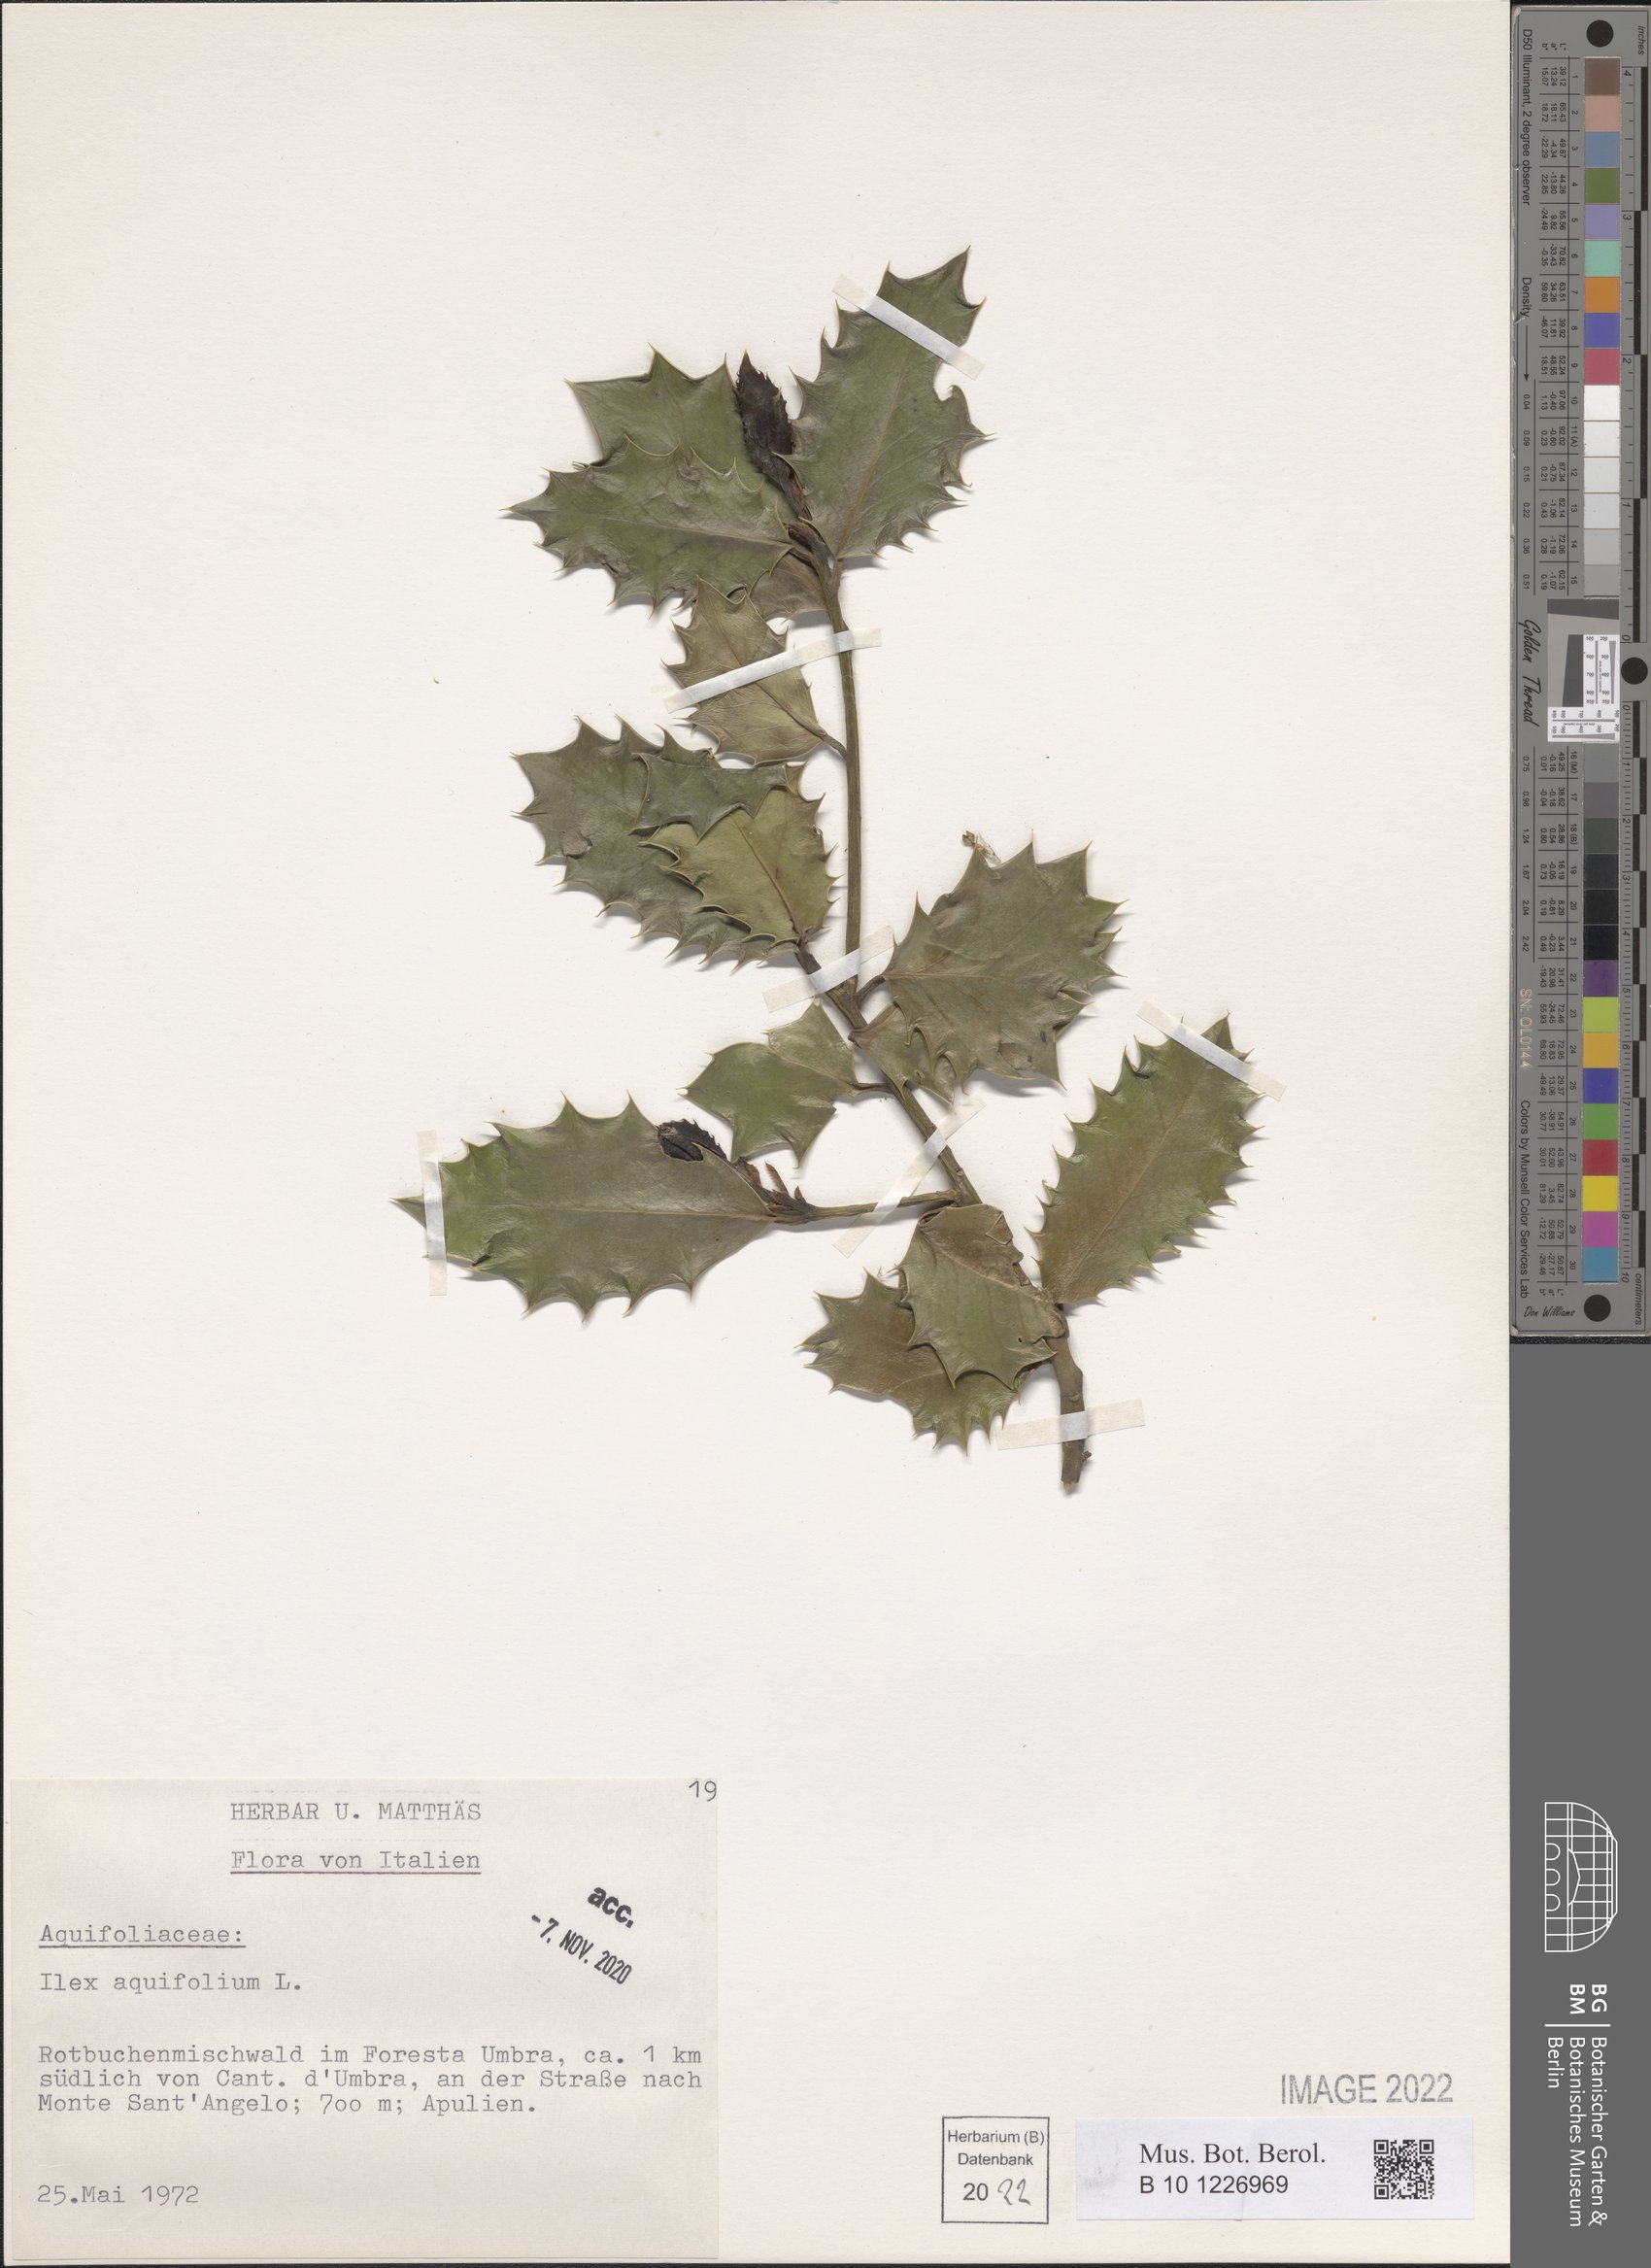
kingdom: Plantae
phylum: Tracheophyta
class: Magnoliopsida
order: Aquifoliales
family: Aquifoliaceae
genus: Ilex
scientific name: Ilex aquifolium
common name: English holly
